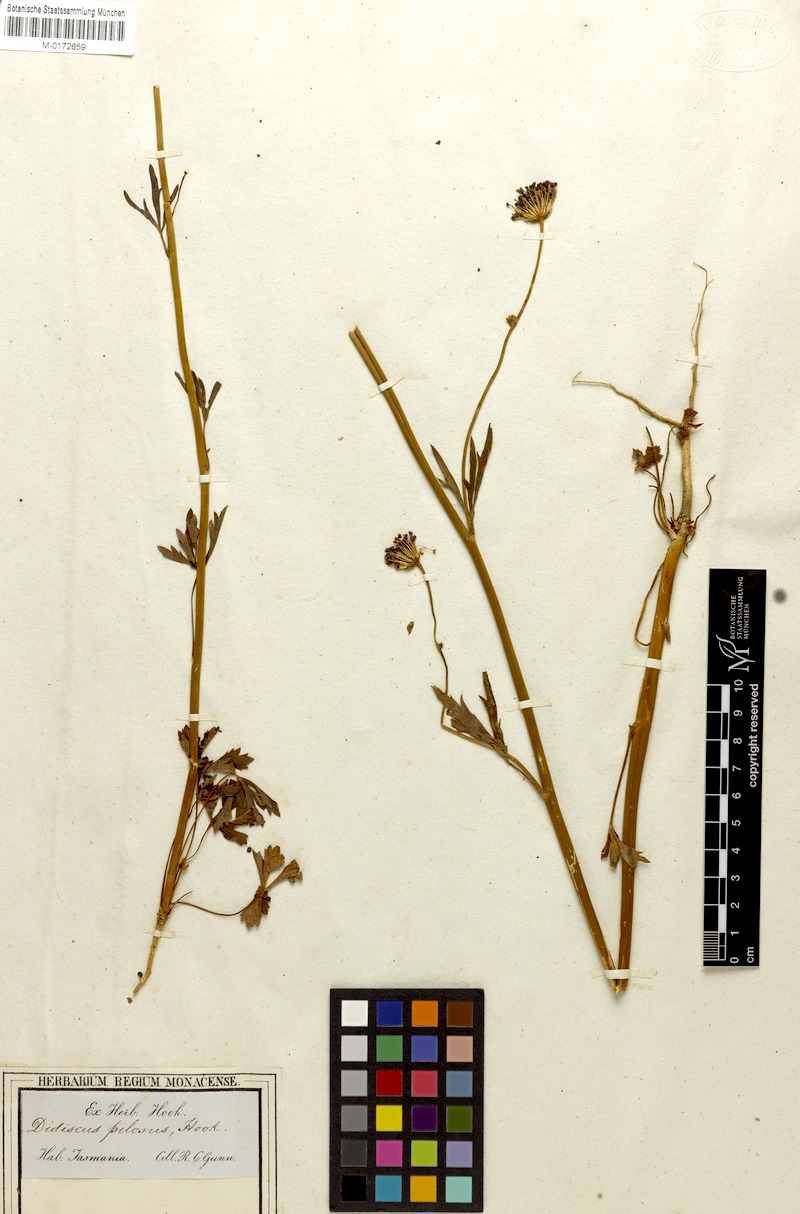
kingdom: Plantae
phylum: Tracheophyta
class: Magnoliopsida
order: Apiales
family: Araliaceae
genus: Trachymene
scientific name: Trachymene
